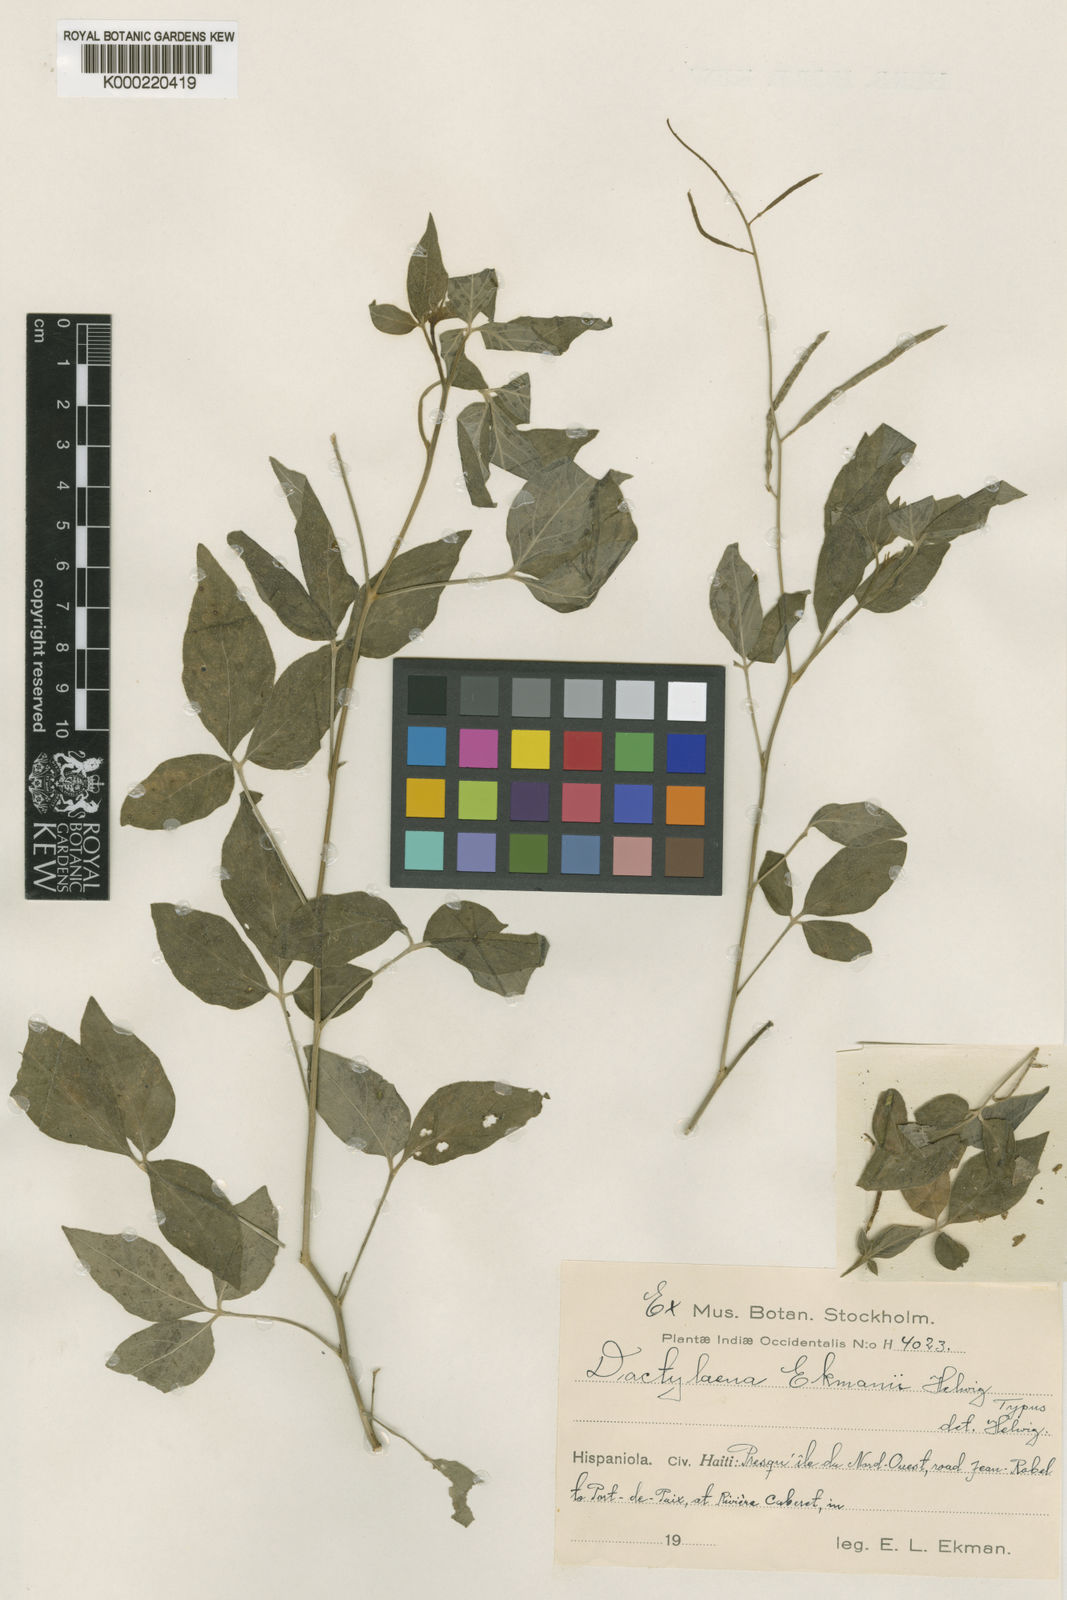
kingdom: Plantae
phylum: Tracheophyta
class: Magnoliopsida
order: Brassicales
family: Cleomaceae
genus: Dactylaena
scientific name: Dactylaena ekmanii
